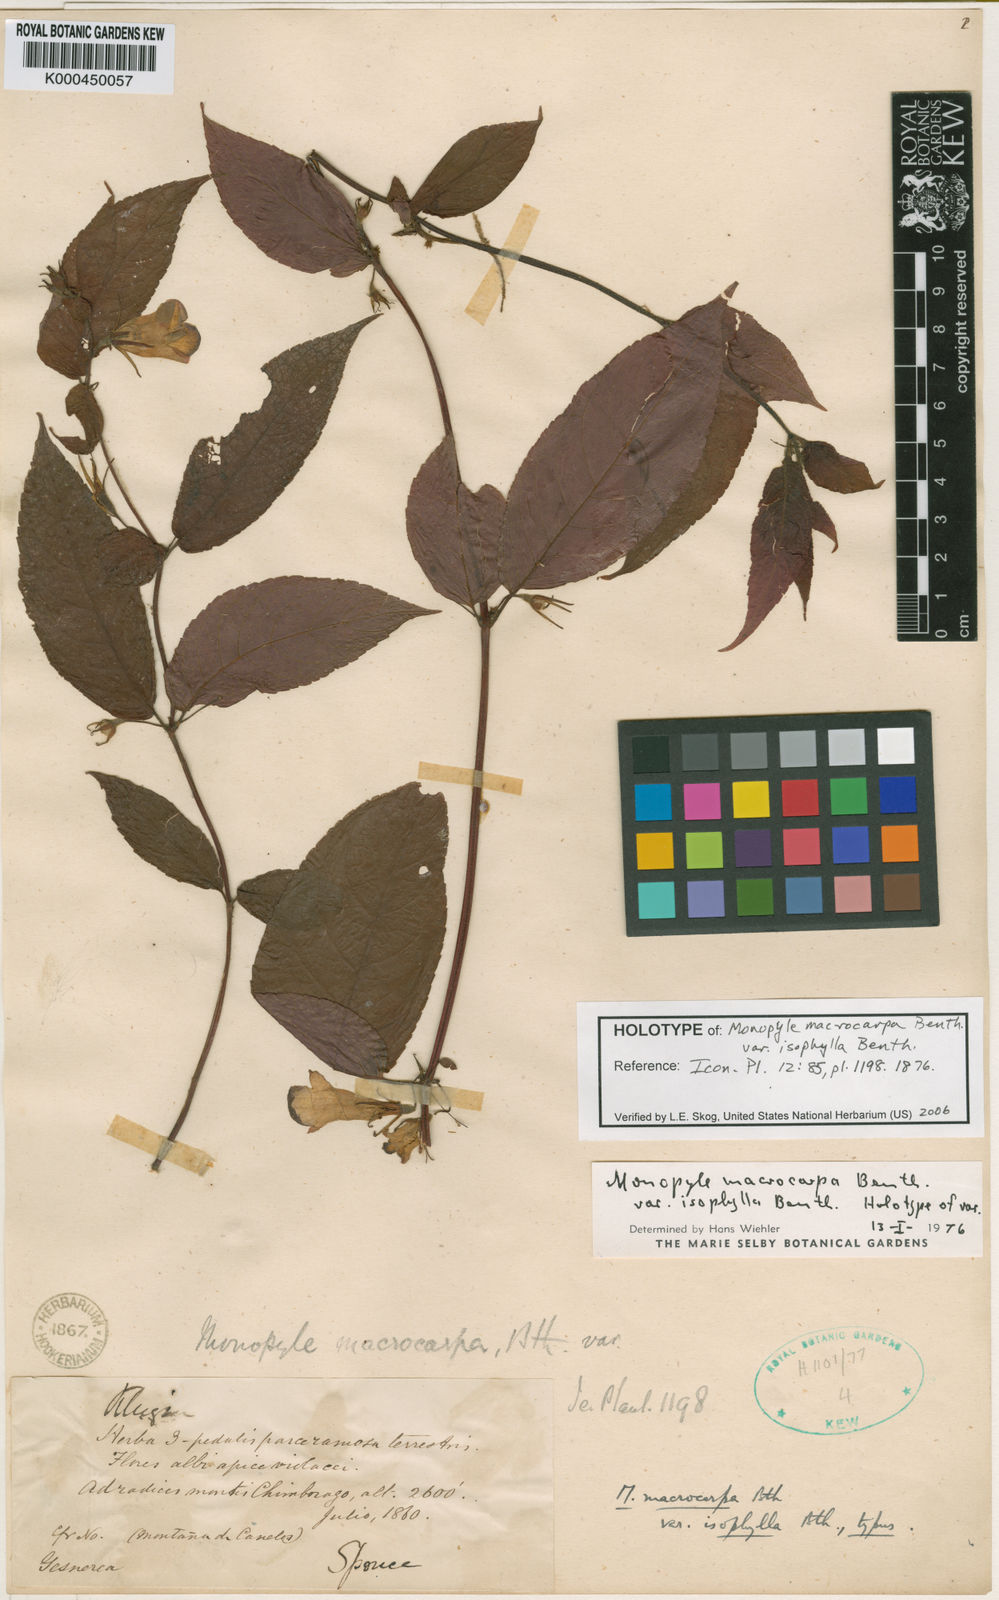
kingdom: Plantae
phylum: Tracheophyta
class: Magnoliopsida
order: Lamiales
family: Gesneriaceae
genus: Monopyle
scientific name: Monopyle macrocarpa
